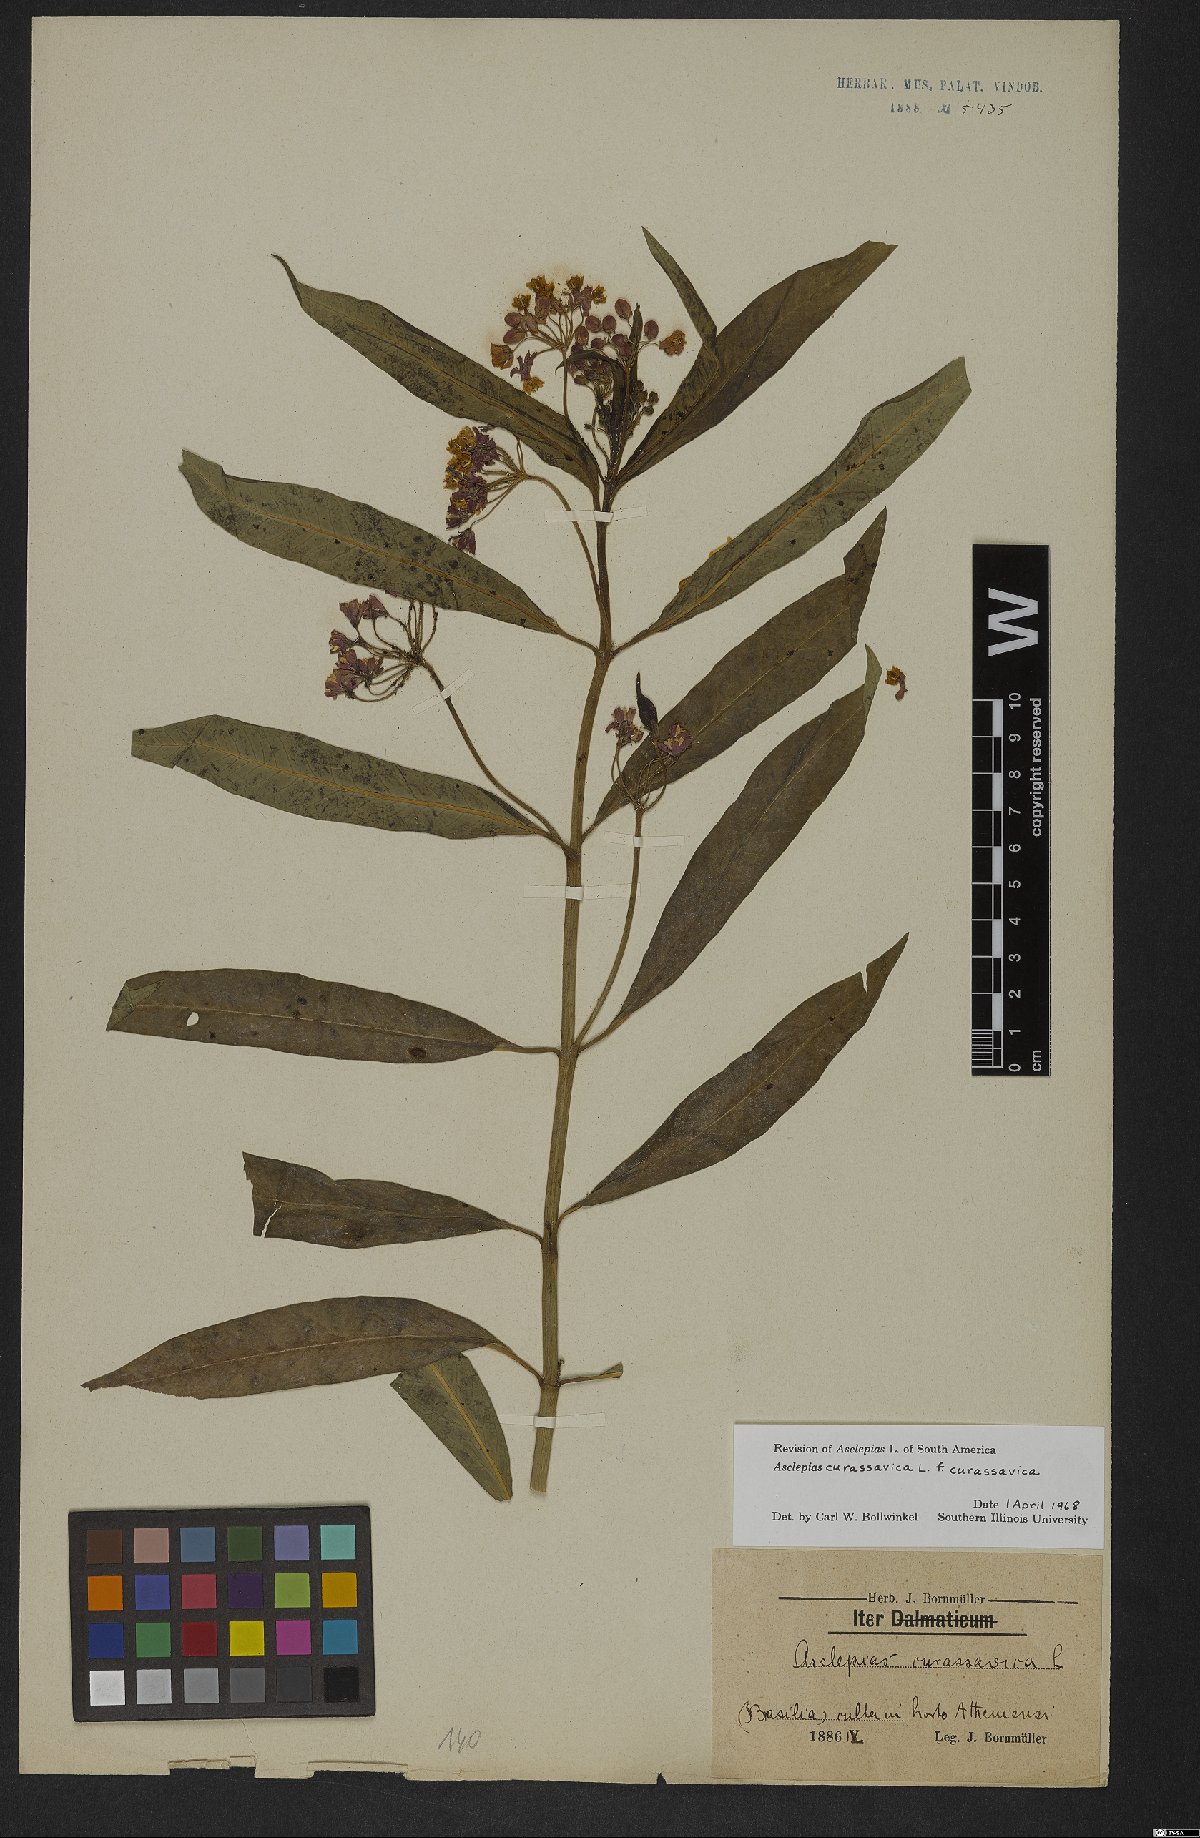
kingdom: Plantae
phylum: Tracheophyta
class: Magnoliopsida
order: Gentianales
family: Apocynaceae
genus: Asclepias
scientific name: Asclepias curassavica
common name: Bloodflower
